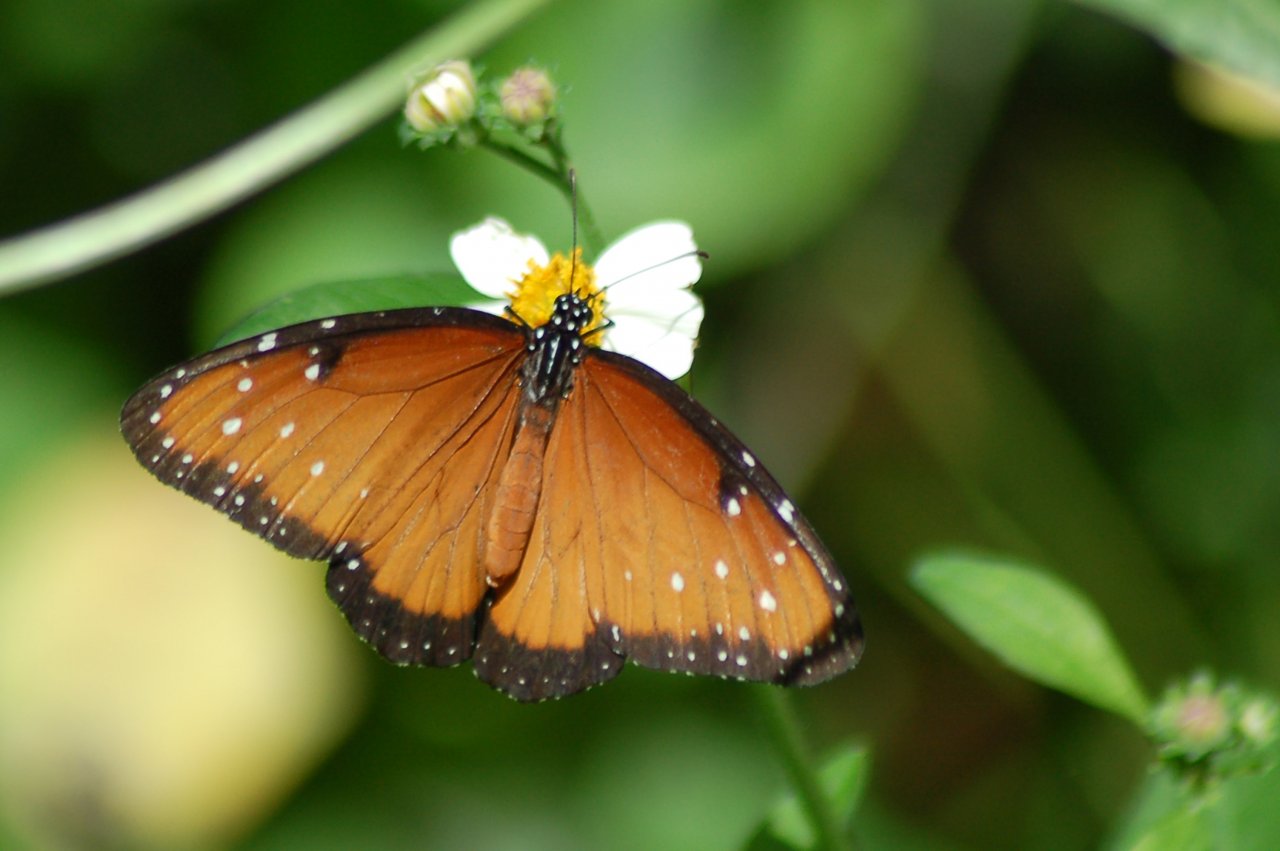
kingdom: Animalia
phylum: Arthropoda
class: Insecta
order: Lepidoptera
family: Nymphalidae
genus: Danaus
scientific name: Danaus gilippus
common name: Queen
